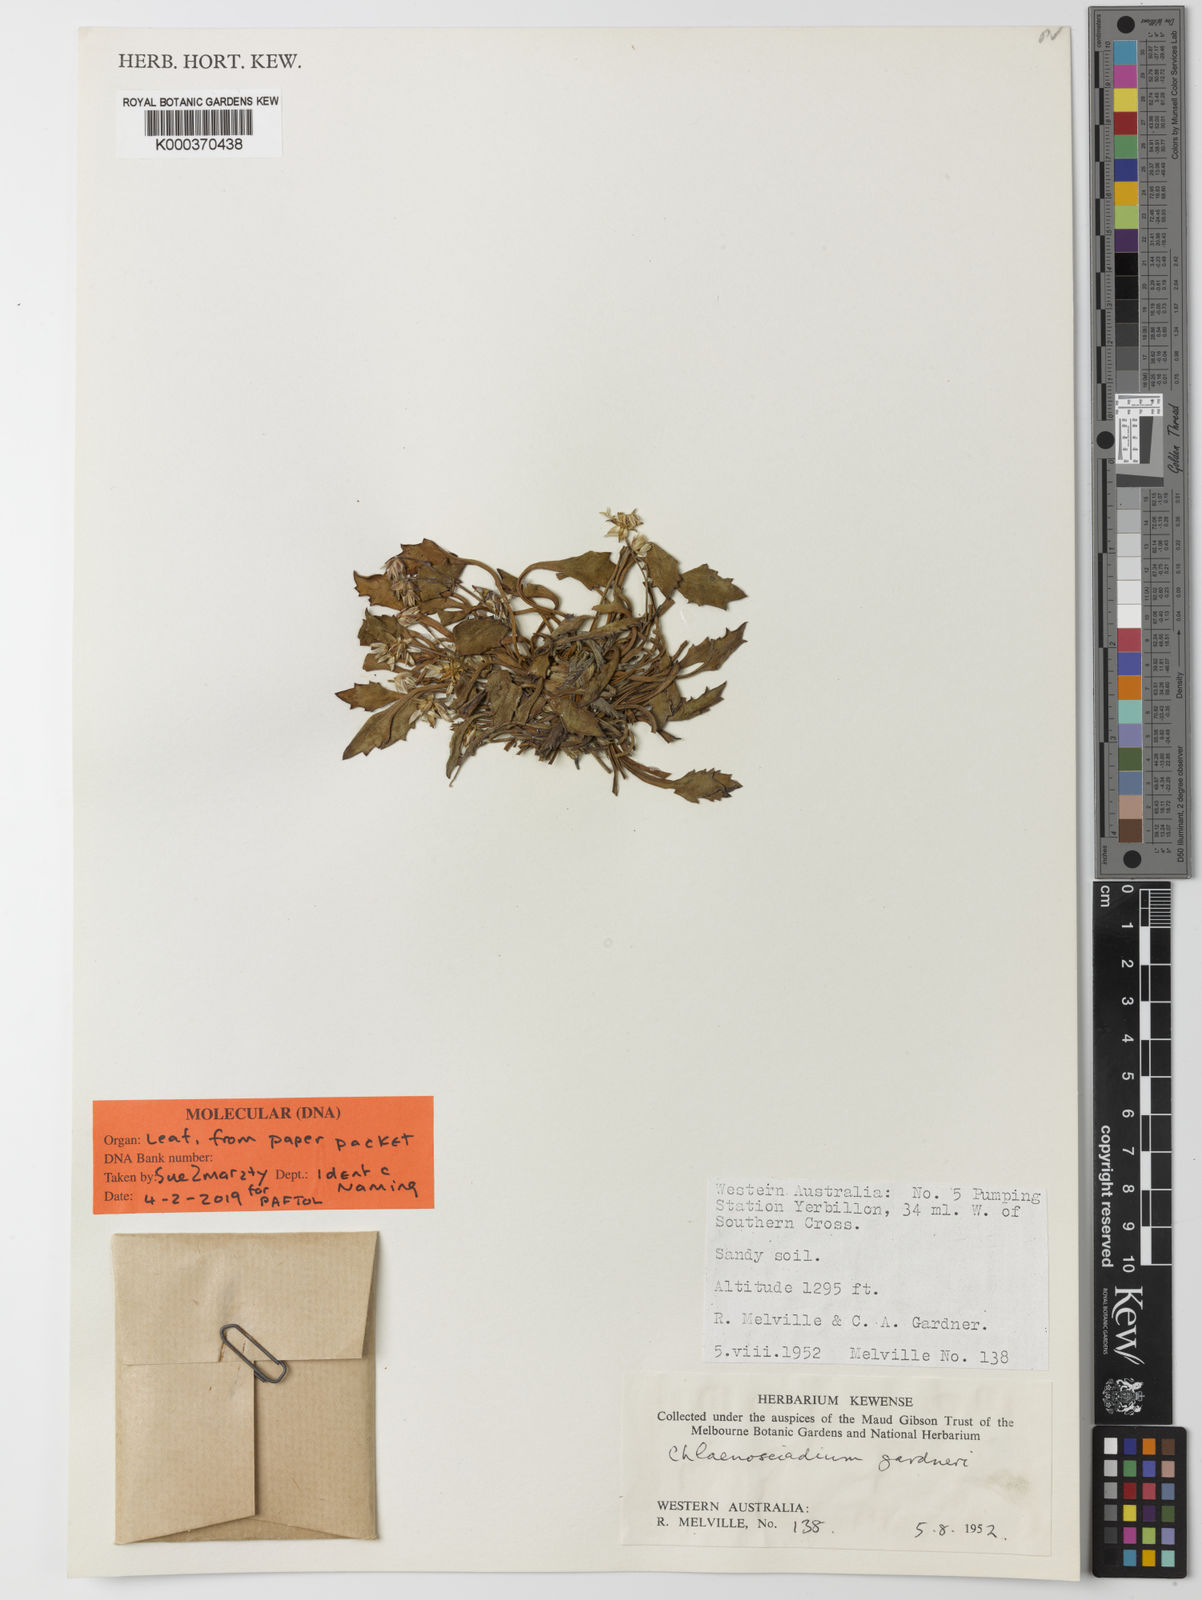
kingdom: Plantae
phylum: Tracheophyta
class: Magnoliopsida
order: Apiales
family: Apiaceae
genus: Chlaenosciadium
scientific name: Chlaenosciadium gardneri
